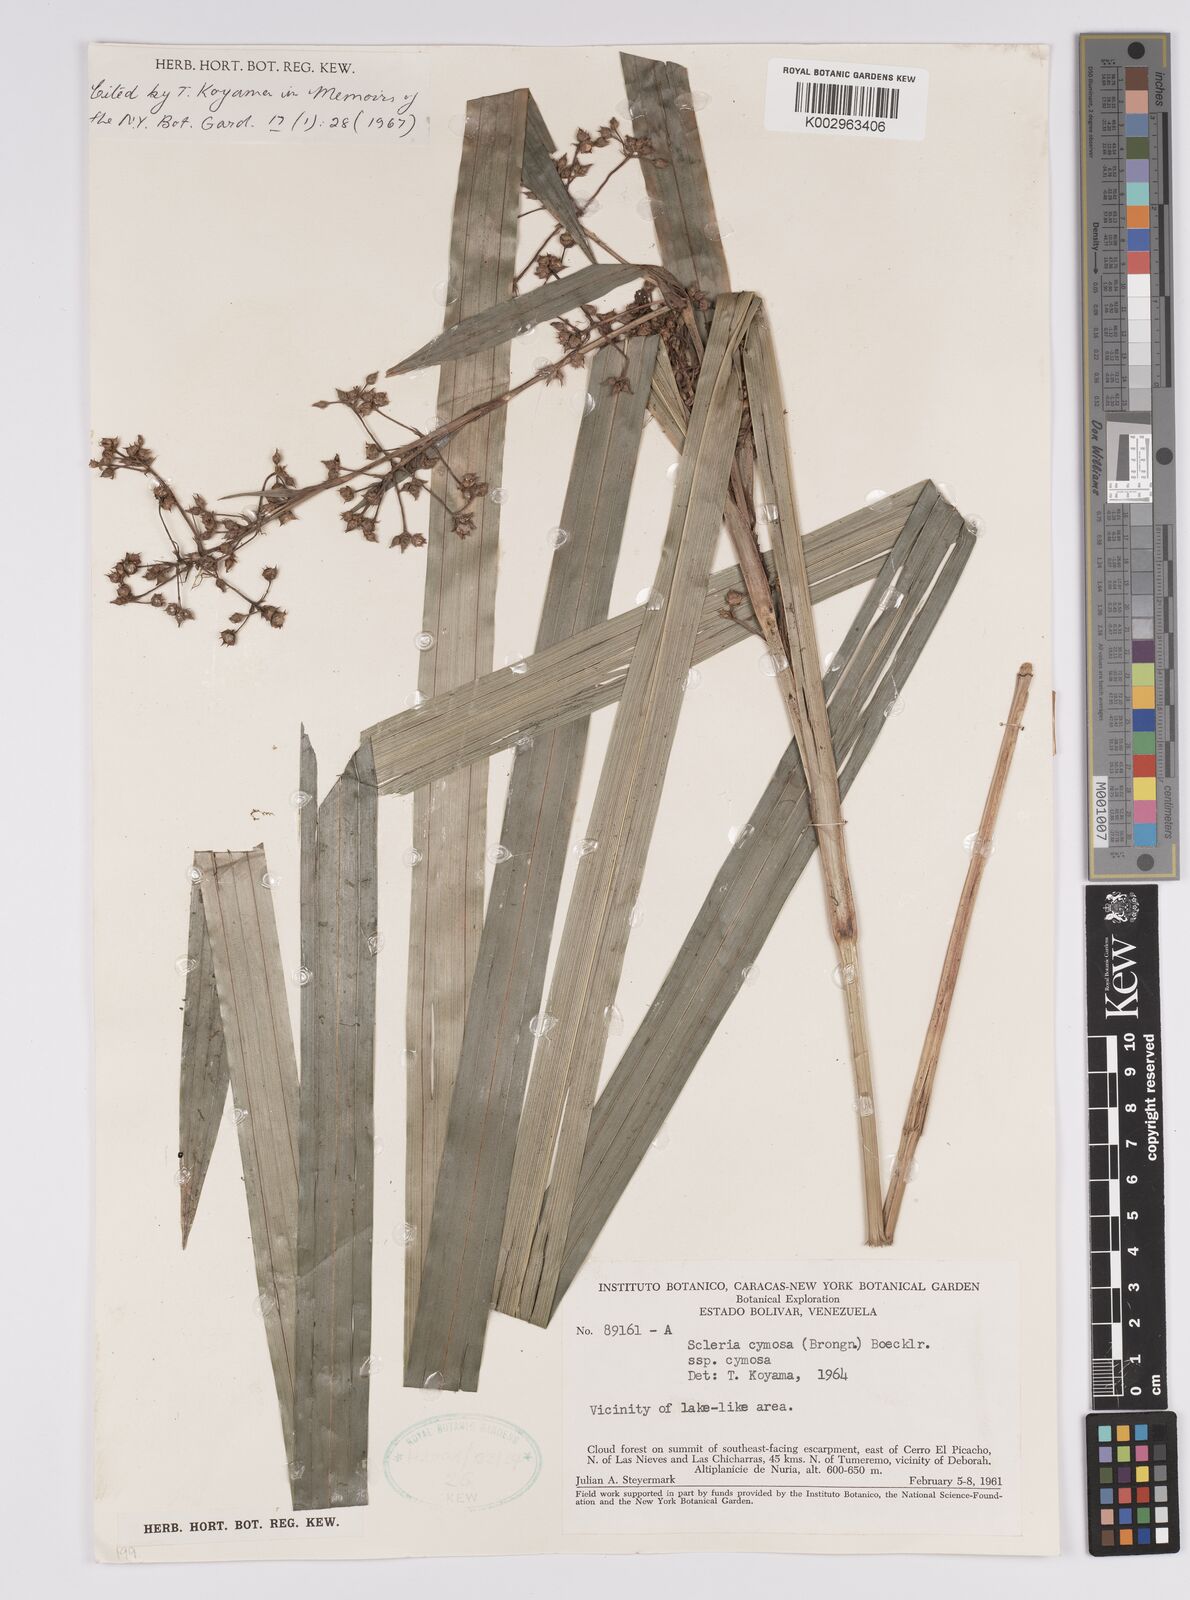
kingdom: Plantae
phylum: Tracheophyta
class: Liliopsida
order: Poales
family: Cyperaceae
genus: Becquerelia
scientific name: Becquerelia cymosa
